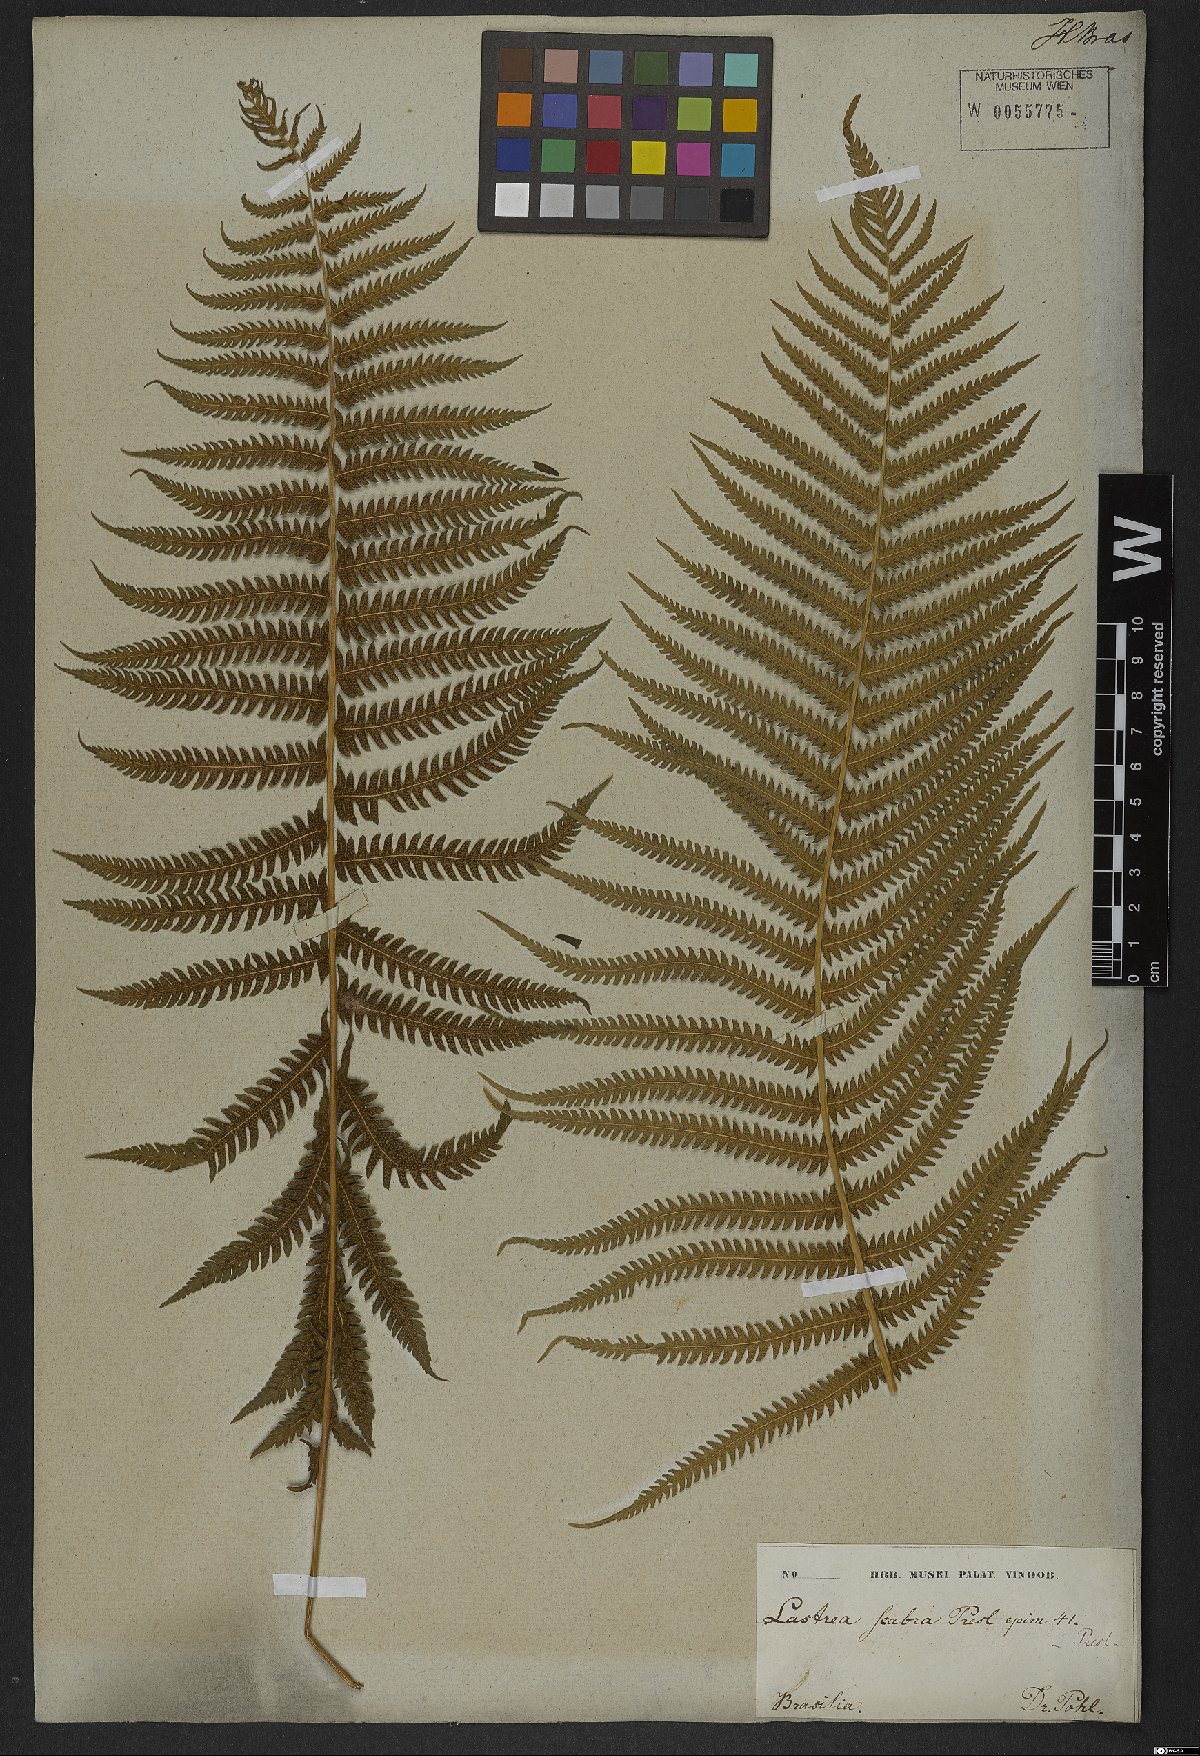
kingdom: Plantae
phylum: Tracheophyta
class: Polypodiopsida
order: Polypodiales
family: Thelypteridaceae
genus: Goniopteris
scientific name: Goniopteris scabra
